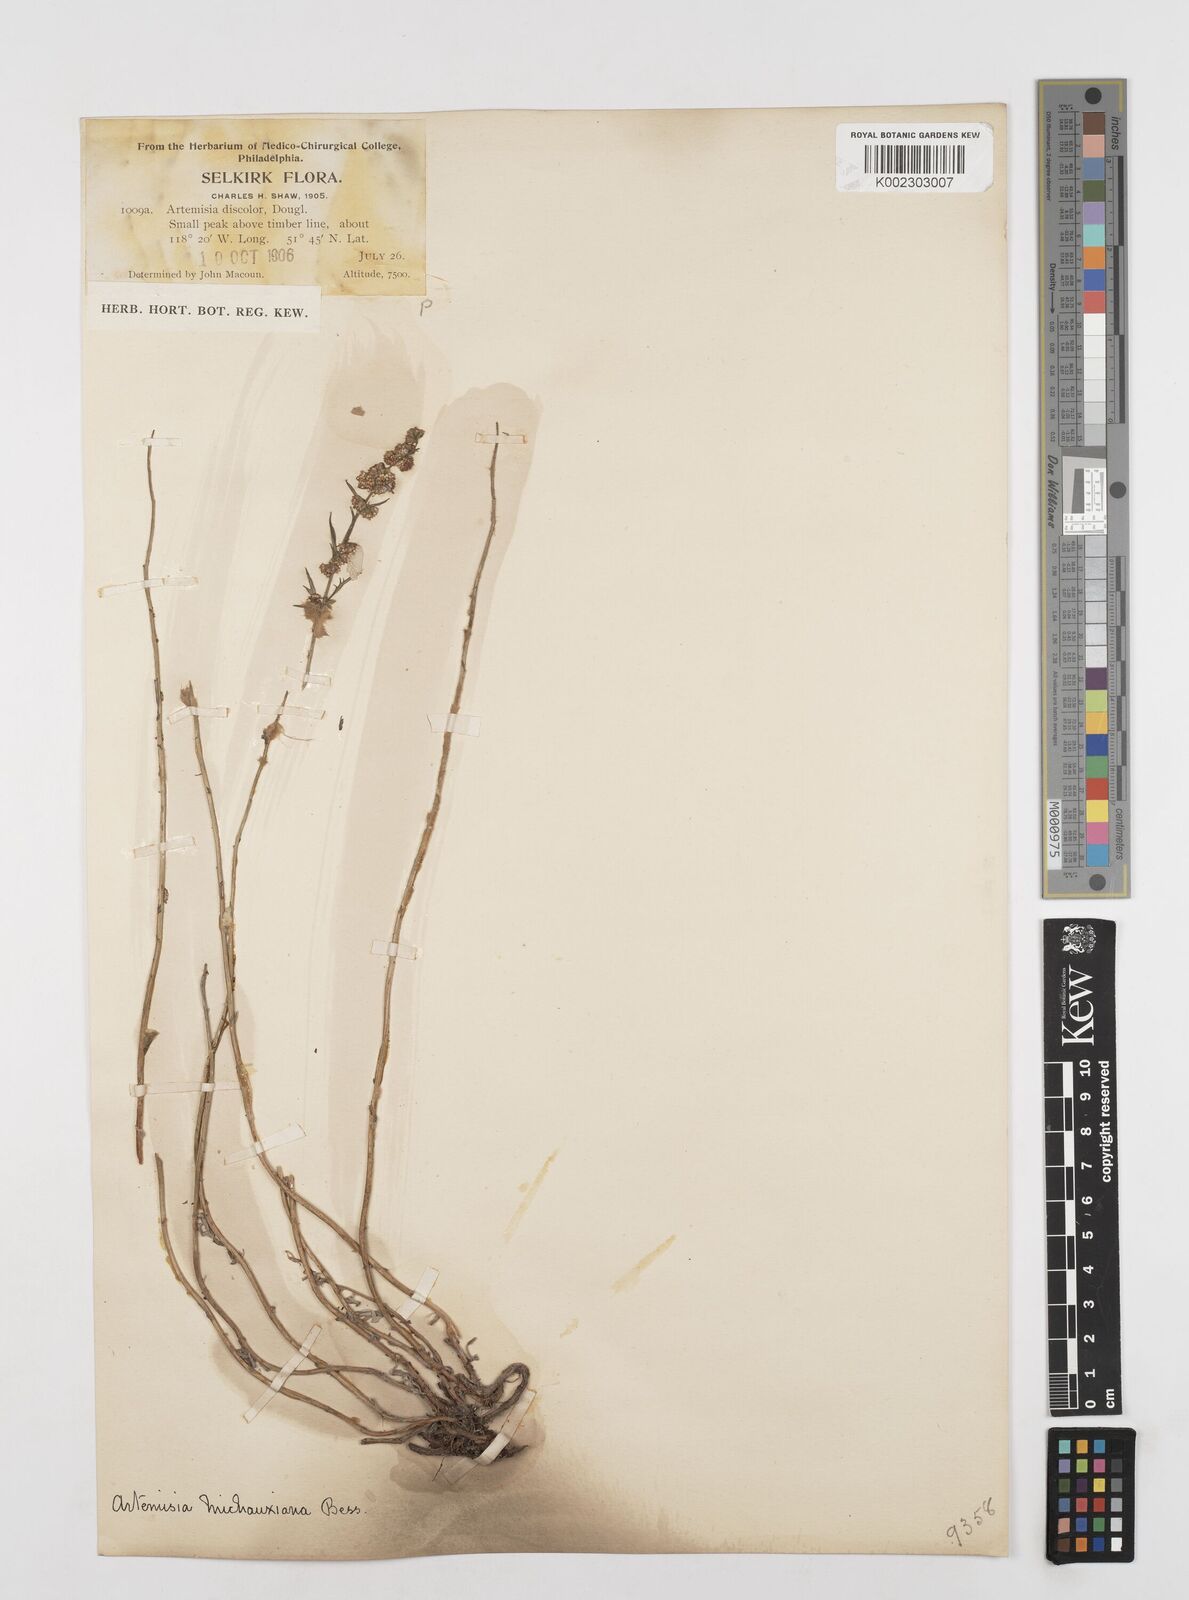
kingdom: Plantae
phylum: Tracheophyta
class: Magnoliopsida
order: Asterales
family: Asteraceae
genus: Artemisia
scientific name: Artemisia michauxiana
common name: Lemon sagewort
